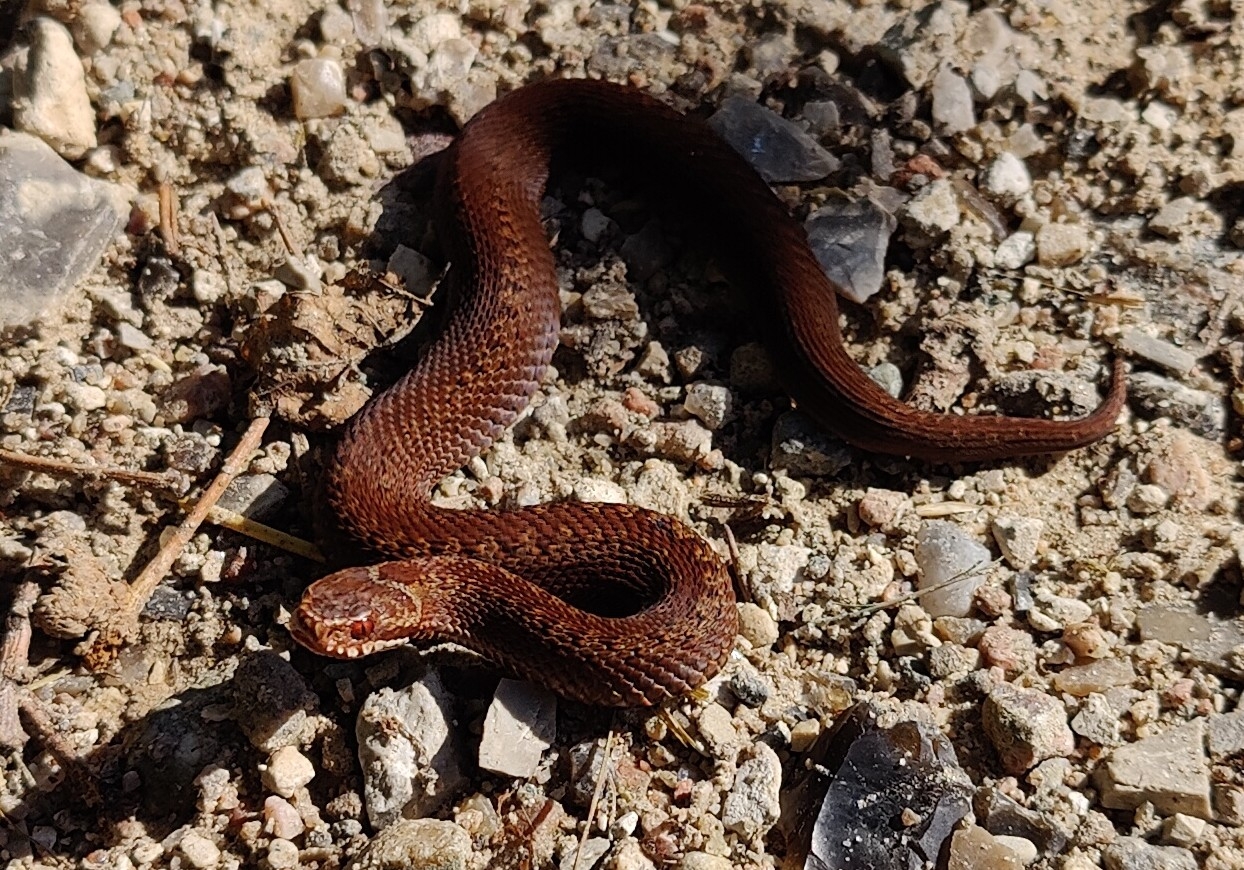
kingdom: Animalia
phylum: Chordata
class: Squamata
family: Viperidae
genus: Vipera
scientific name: Vipera berus
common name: Hugorm
